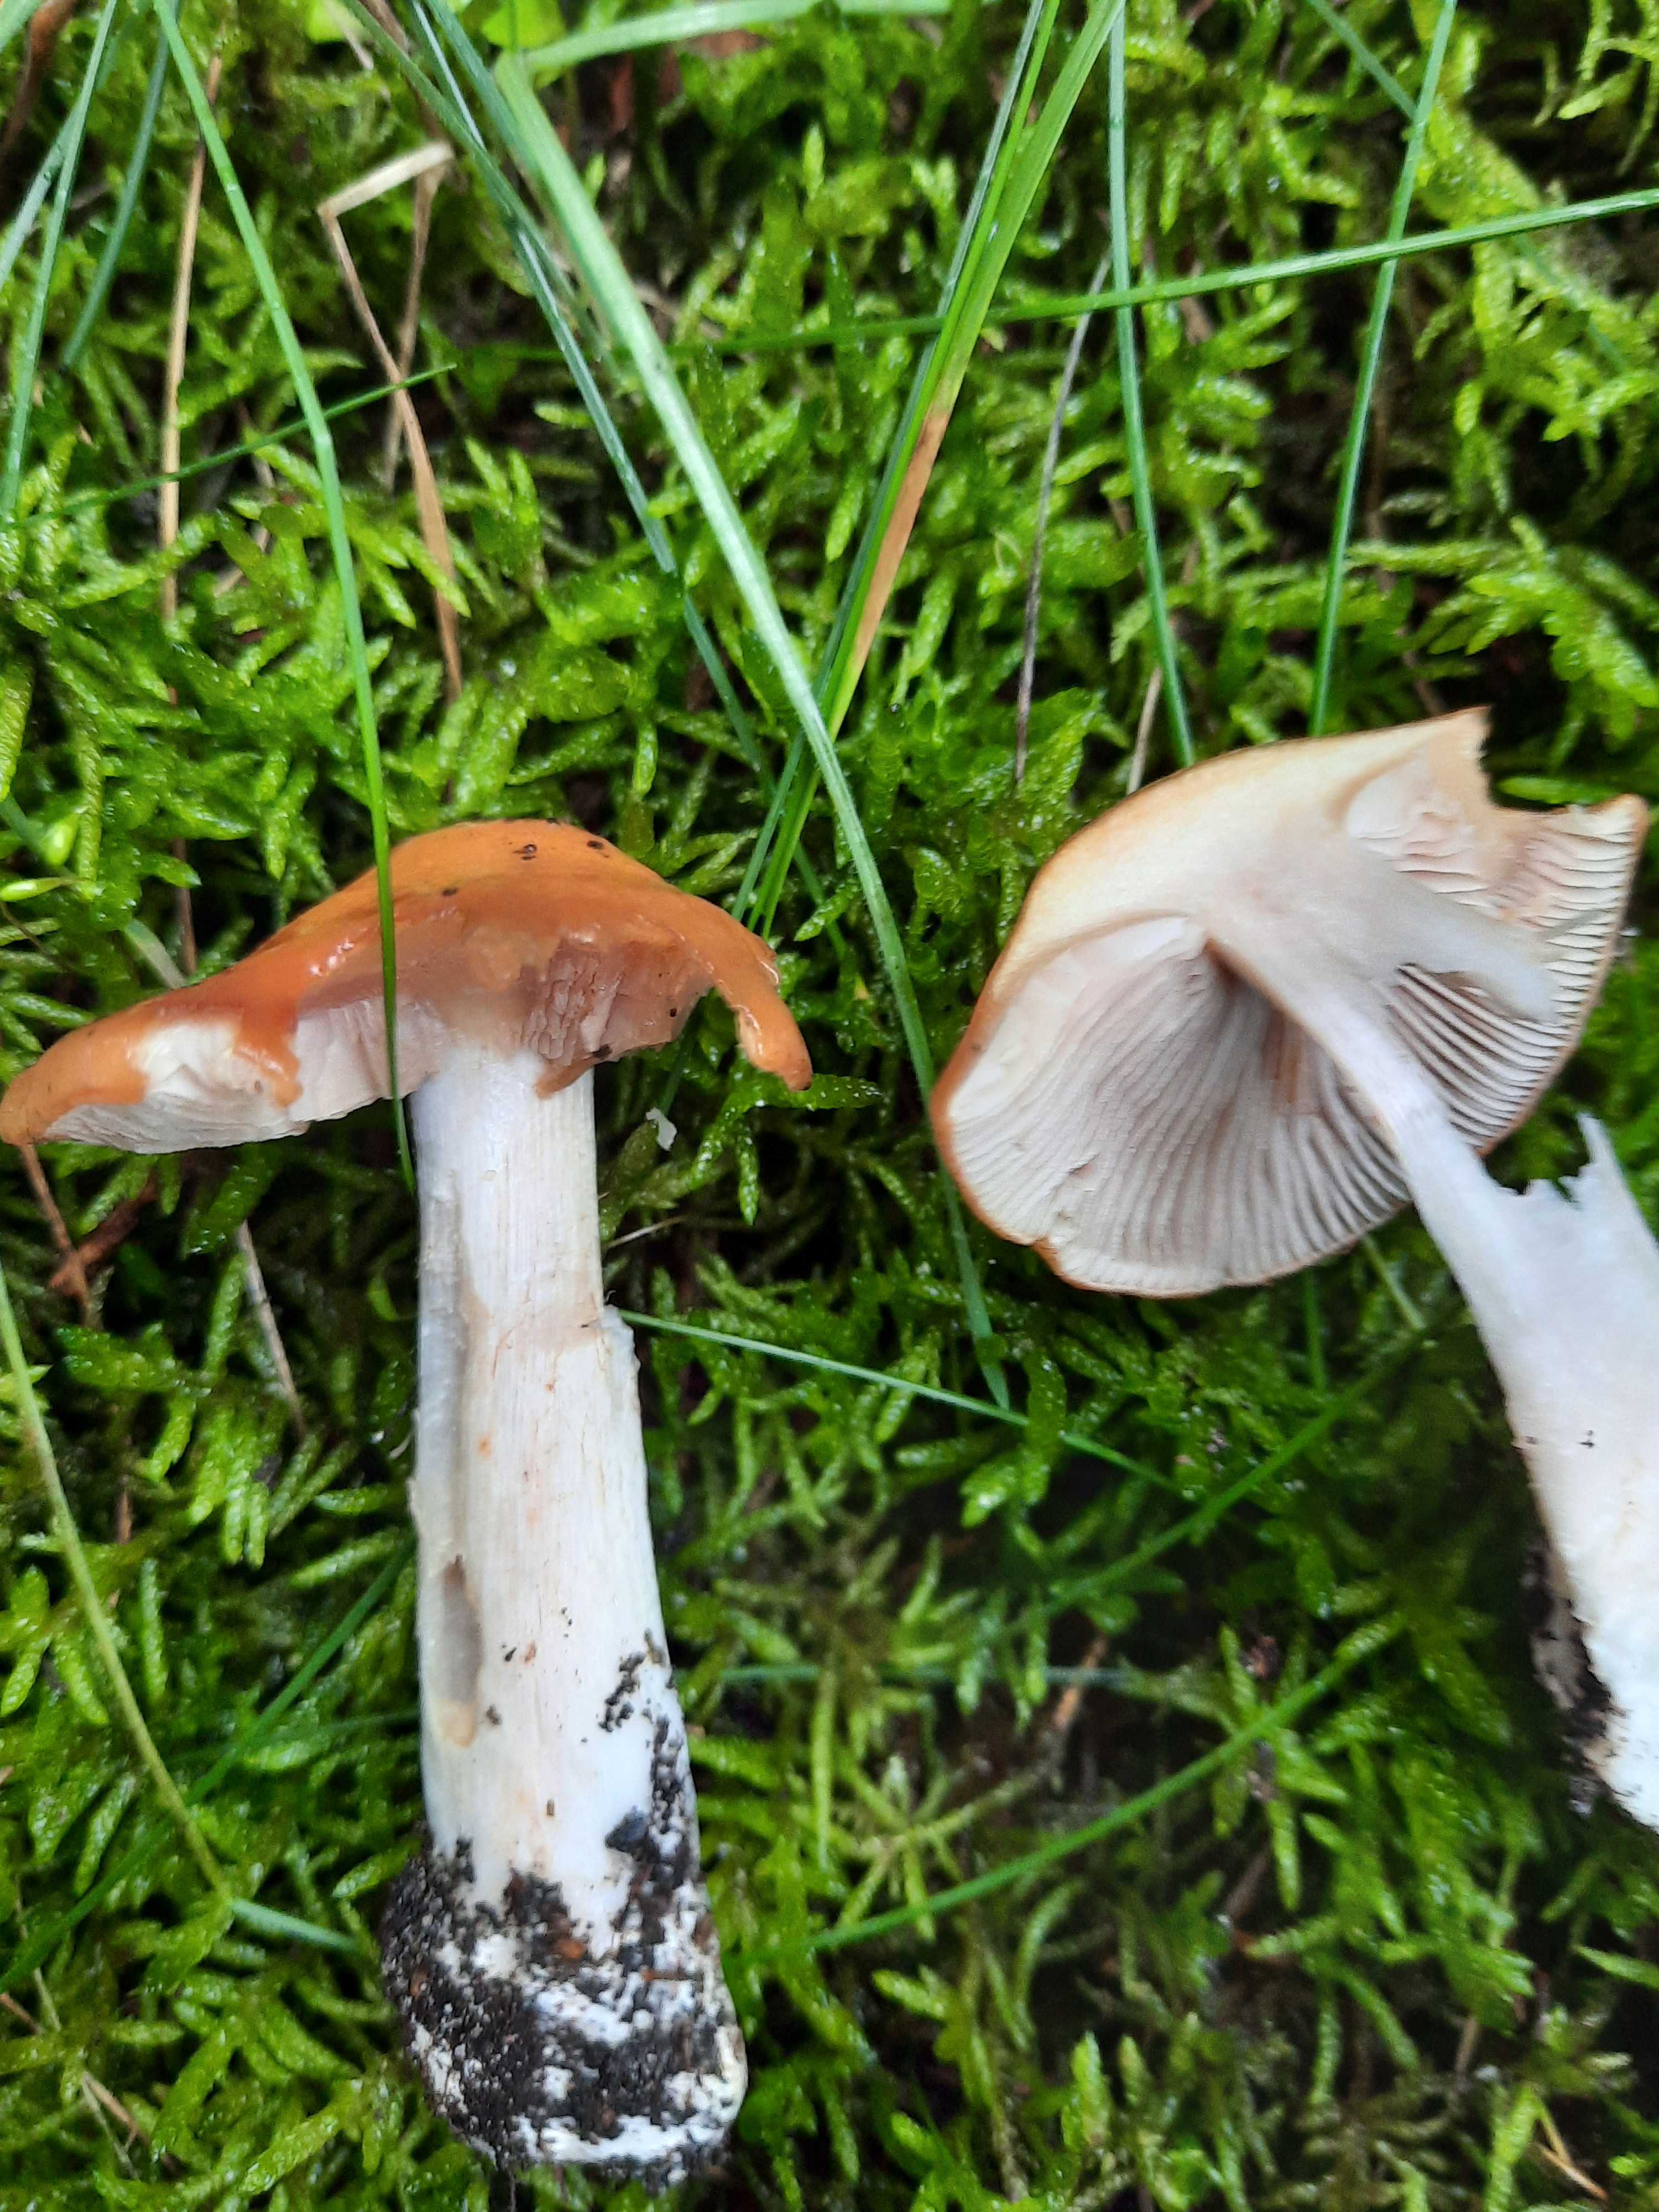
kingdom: Fungi
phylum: Basidiomycota
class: Agaricomycetes
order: Agaricales
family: Cortinariaceae
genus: Thaxterogaster
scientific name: Thaxterogaster multiformis
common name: honning-slørhat
